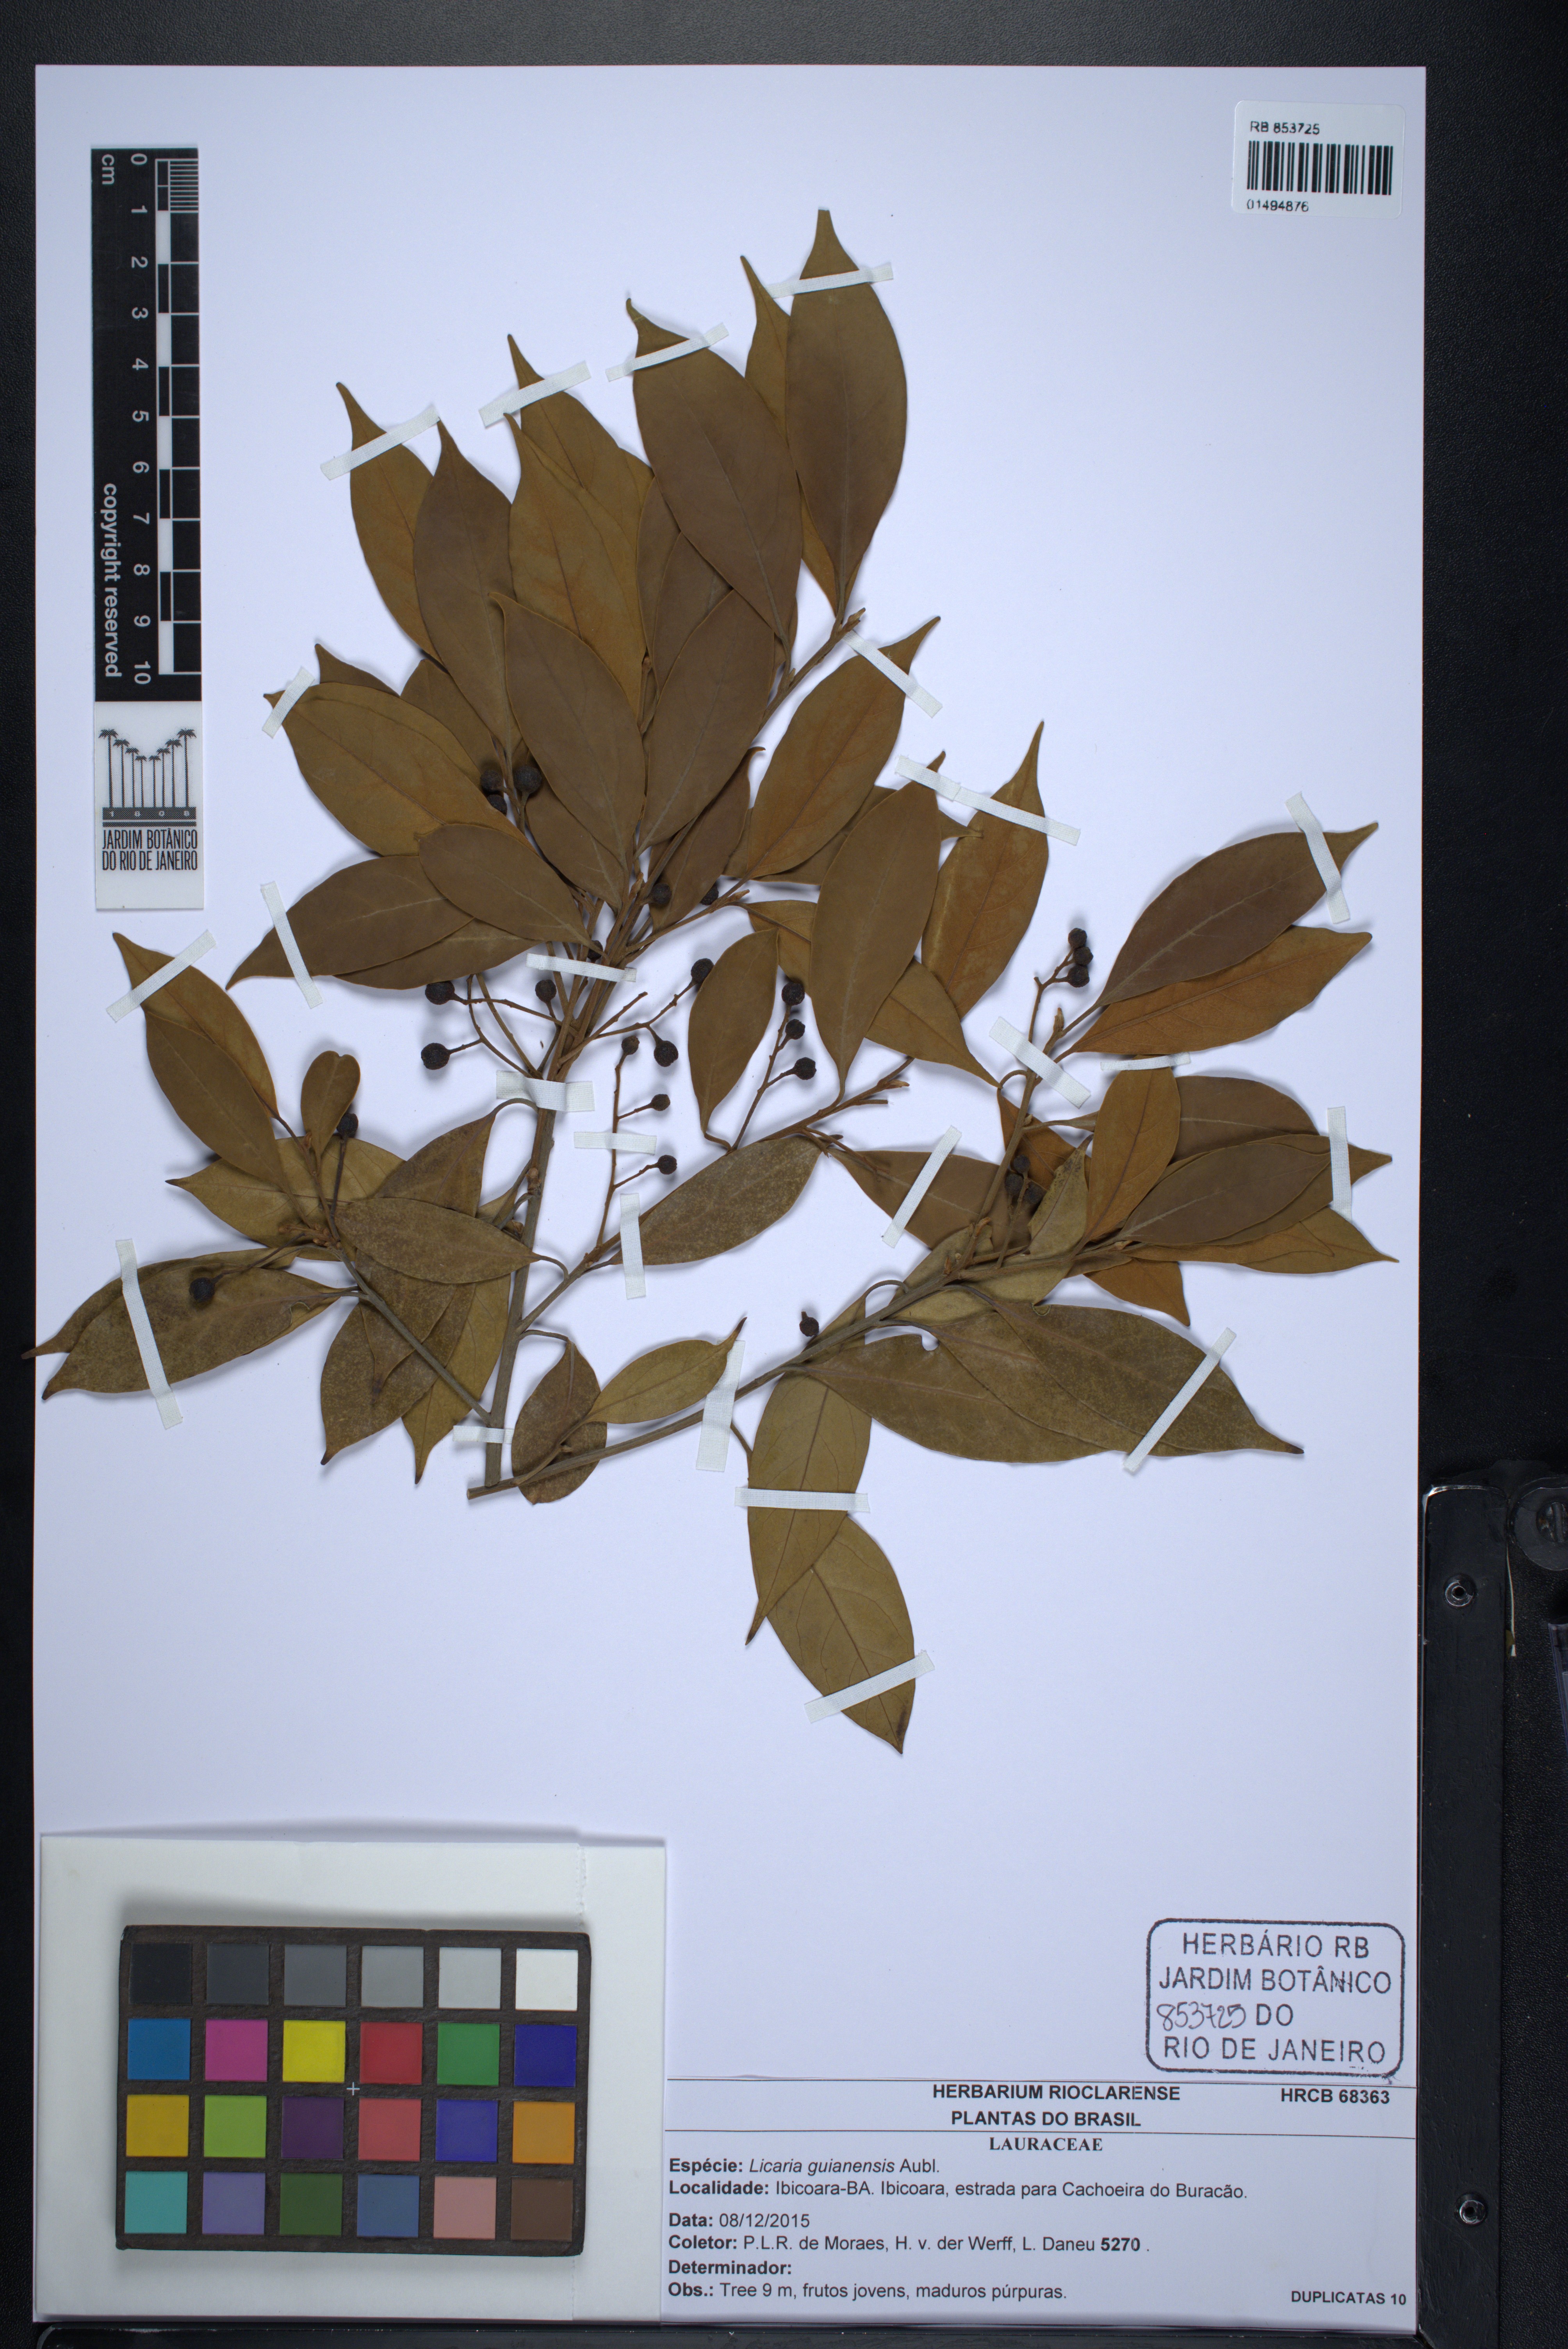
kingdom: Plantae
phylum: Tracheophyta
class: Magnoliopsida
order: Laurales
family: Lauraceae
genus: Licaria
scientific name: Licaria guianensis
